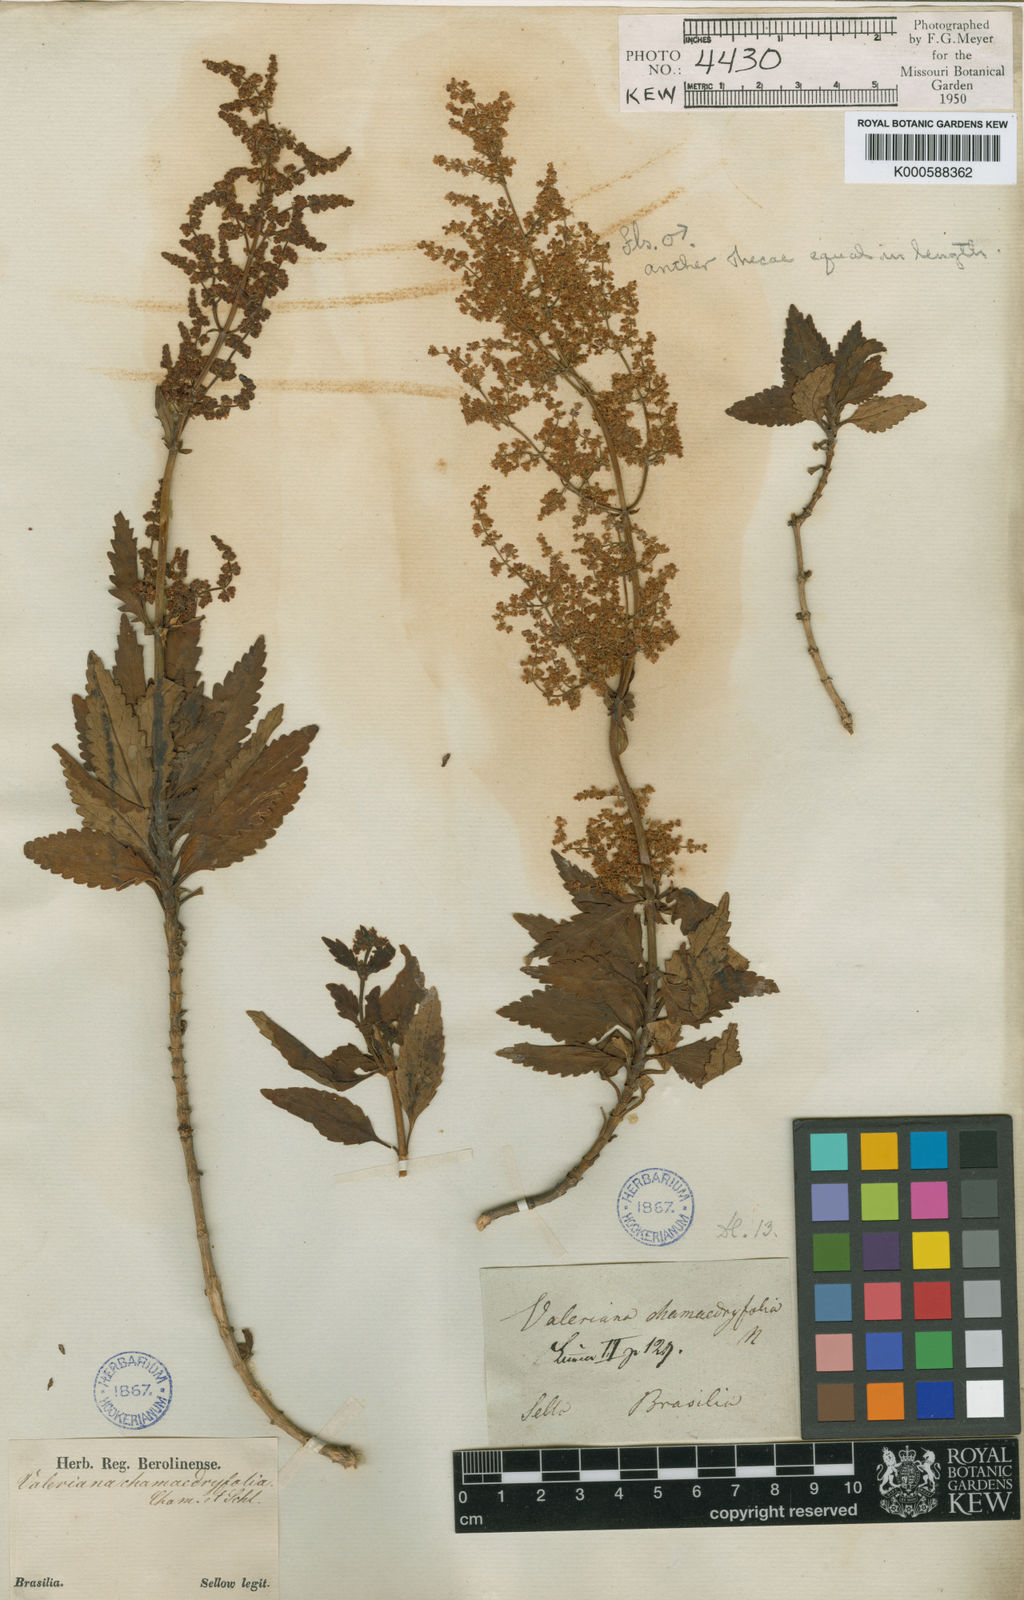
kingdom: Plantae
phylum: Tracheophyta
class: Magnoliopsida
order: Dipsacales
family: Caprifoliaceae
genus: Valeriana
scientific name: Valeriana chamaedryfolia
